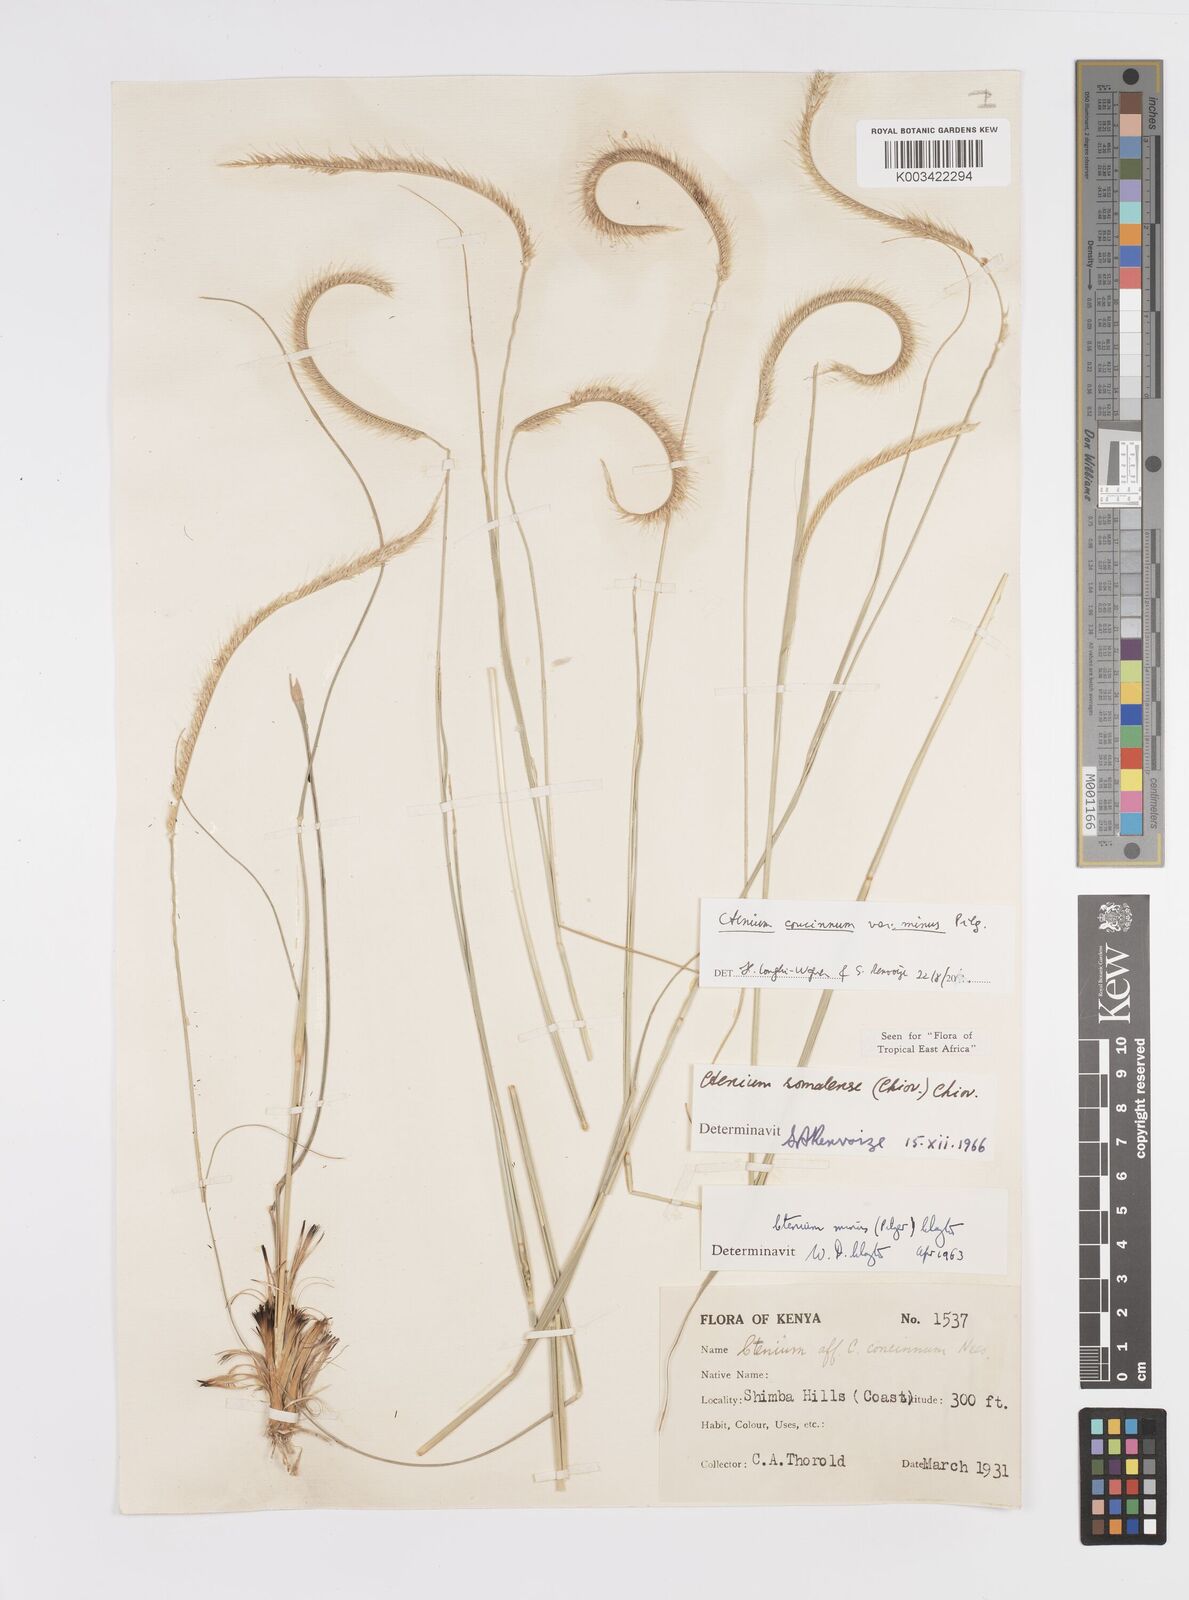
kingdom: Plantae
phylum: Tracheophyta
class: Liliopsida
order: Poales
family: Poaceae
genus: Ctenium
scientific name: Ctenium concinnum
